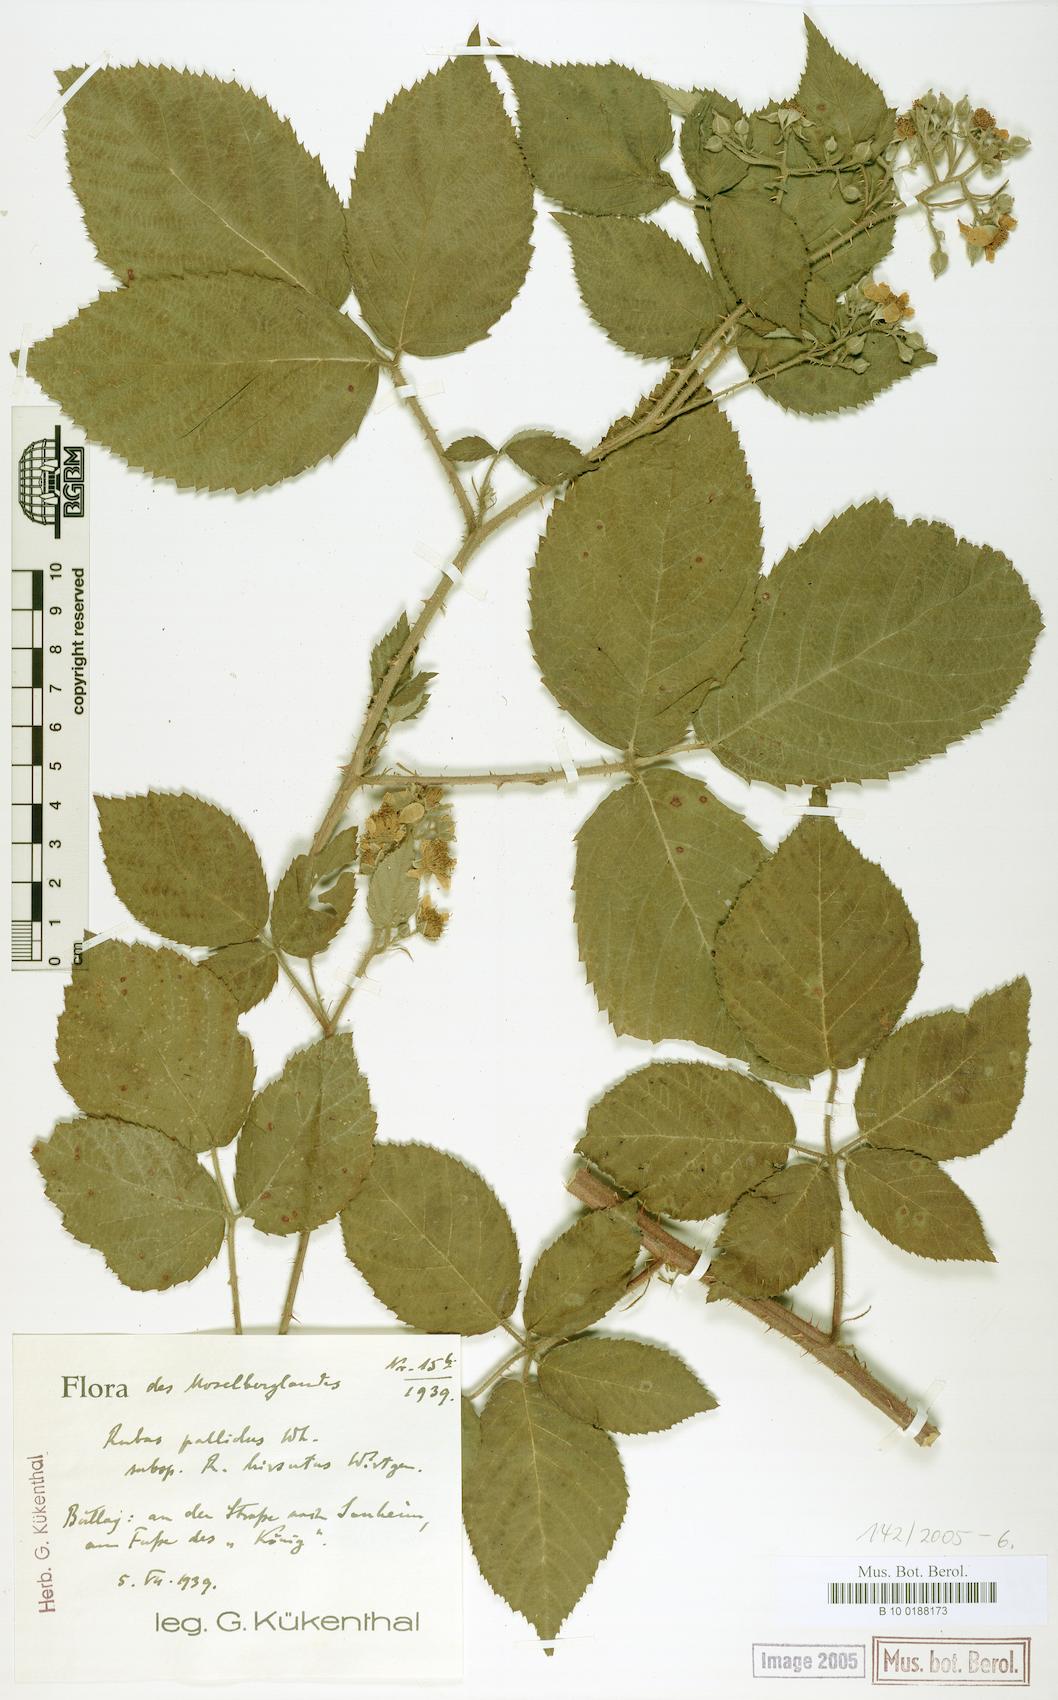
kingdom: Plantae
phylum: Tracheophyta
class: Magnoliopsida
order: Rosales
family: Rosaceae
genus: Rubus
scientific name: Rubus pallidus
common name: Pale bramble
